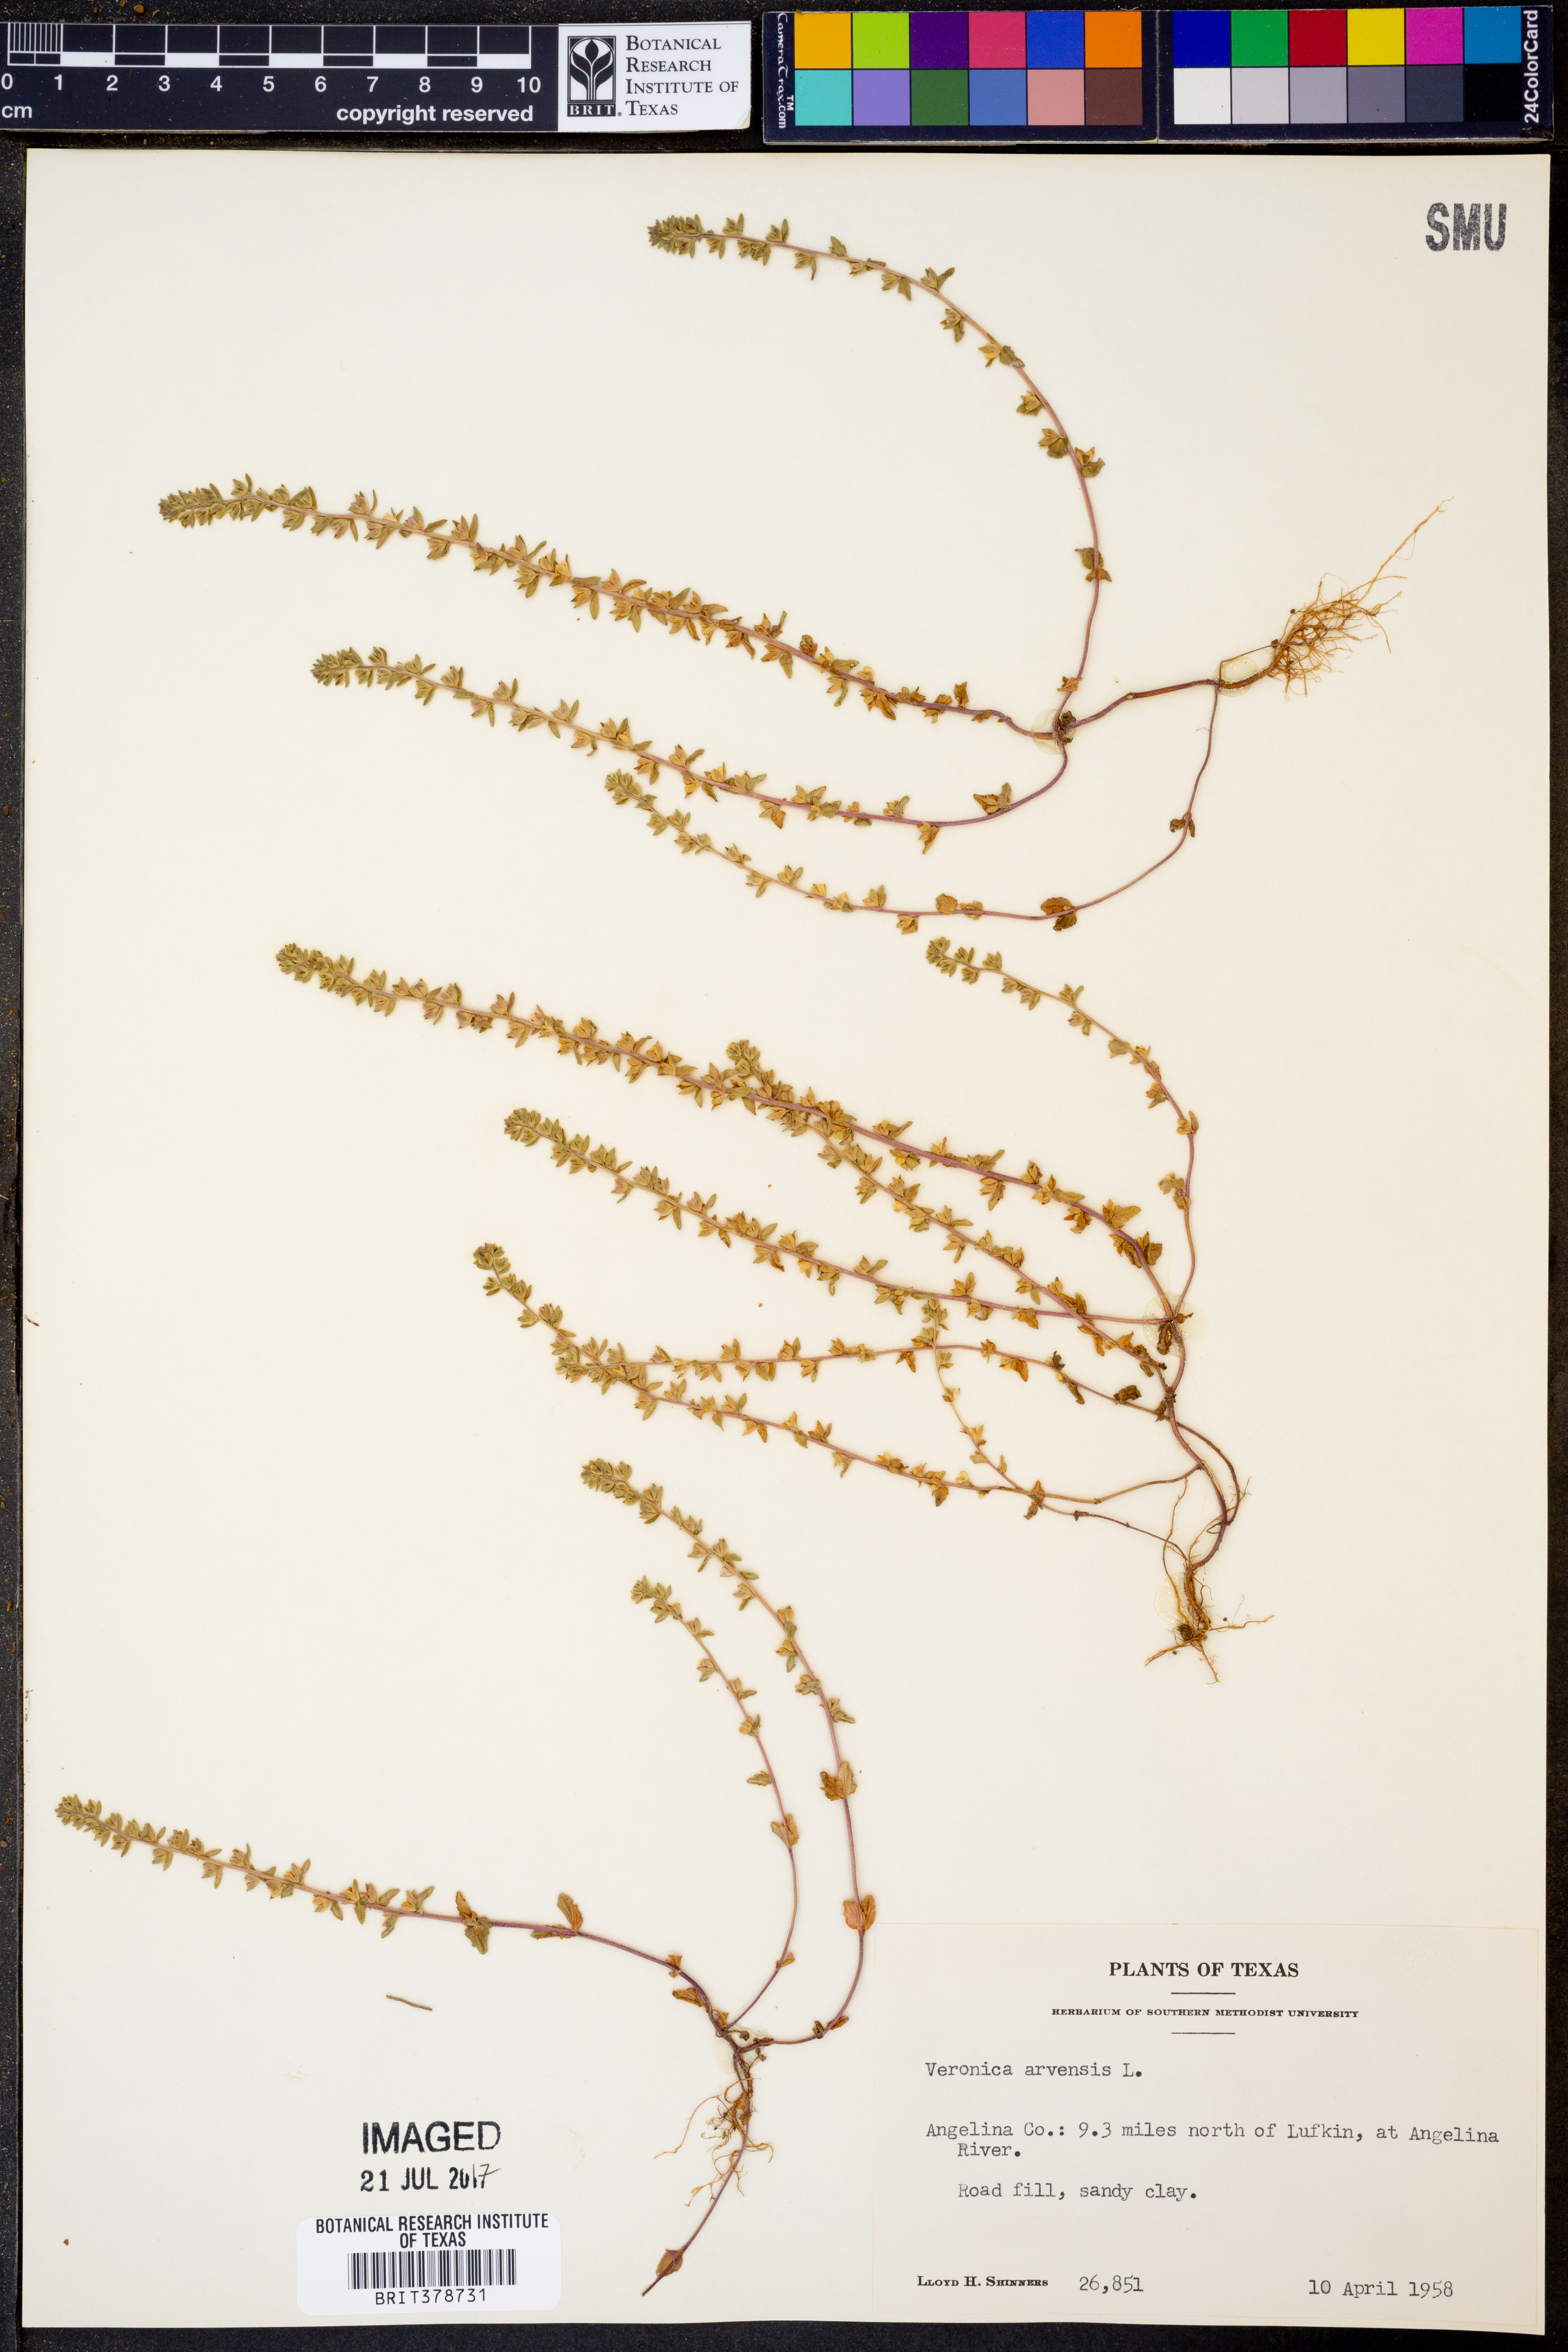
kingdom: Plantae
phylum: Tracheophyta
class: Magnoliopsida
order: Lamiales
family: Plantaginaceae
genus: Veronica
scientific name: Veronica arvensis
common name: Corn speedwell
